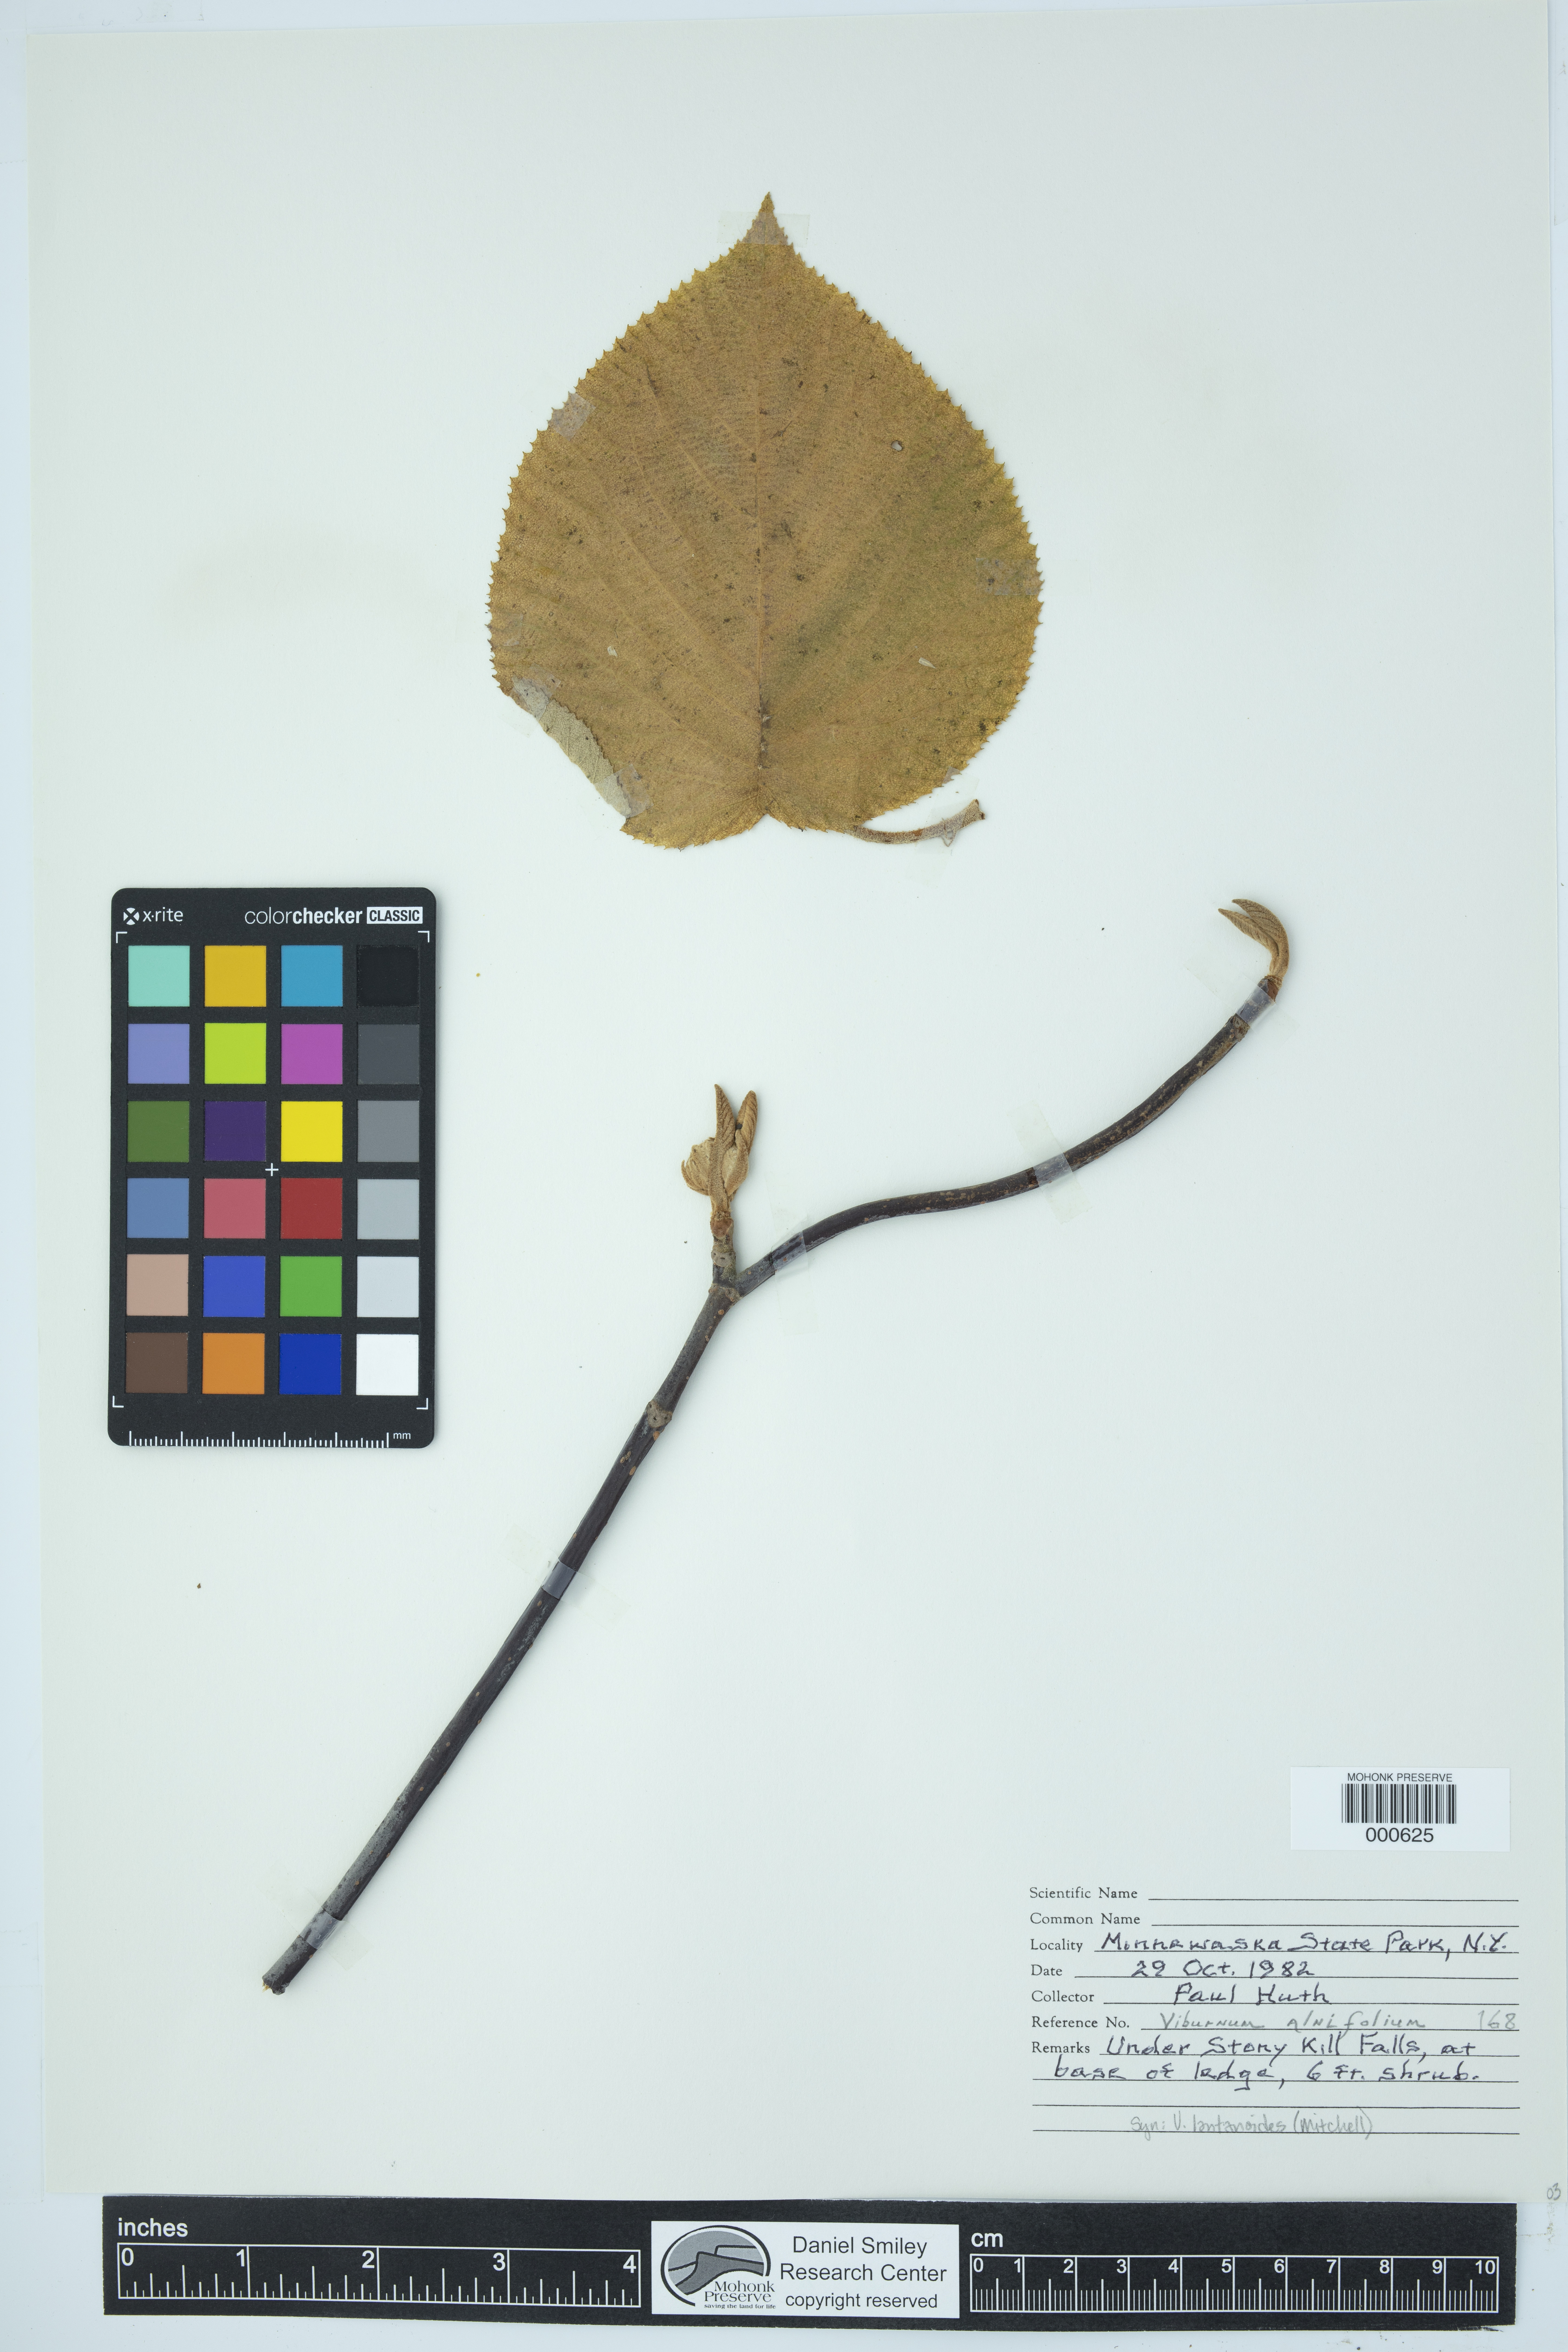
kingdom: Plantae
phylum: Tracheophyta
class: Magnoliopsida
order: Dipsacales
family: Viburnaceae
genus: Viburnum
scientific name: Viburnum lantanoides
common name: Hobblebush
